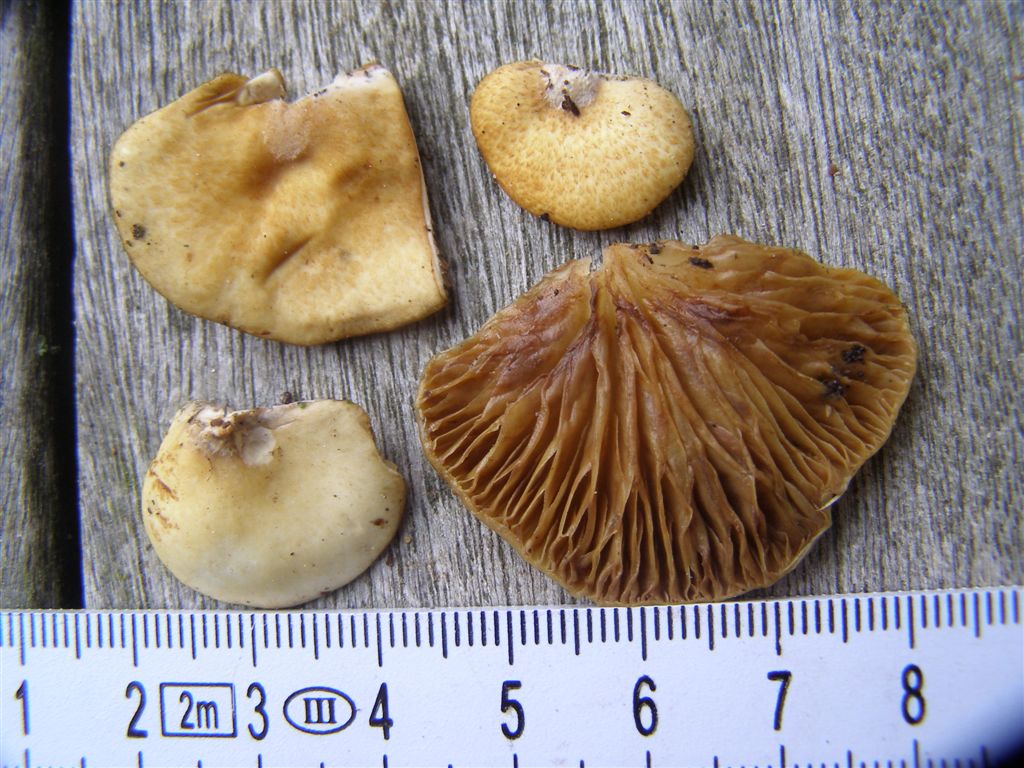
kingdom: Fungi
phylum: Basidiomycota
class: Agaricomycetes
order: Agaricales
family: Crepidotaceae
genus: Crepidotus
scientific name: Crepidotus calolepis
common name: småskællet muslingesvamp
